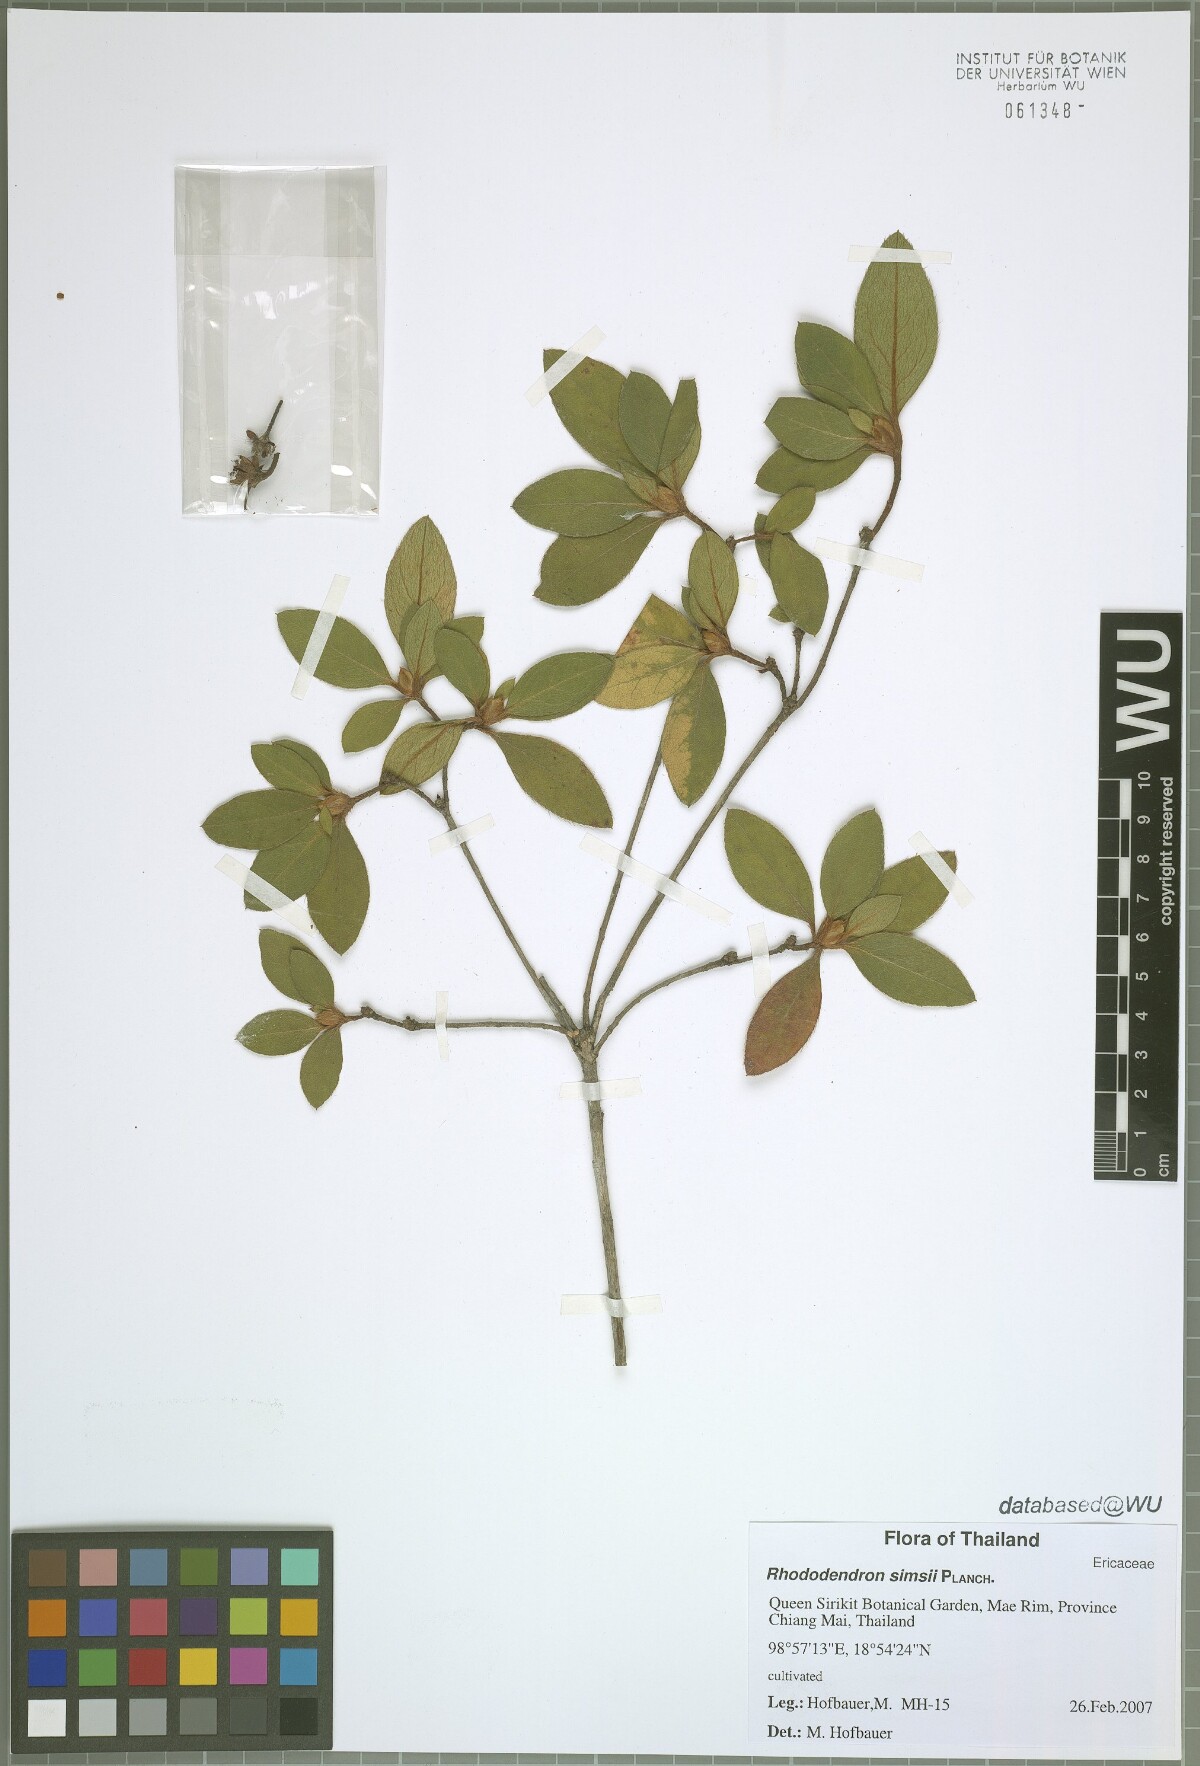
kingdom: Plantae
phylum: Tracheophyta
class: Magnoliopsida
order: Ericales
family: Ericaceae
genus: Rhododendron
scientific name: Rhododendron simsii
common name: Rhododendron
